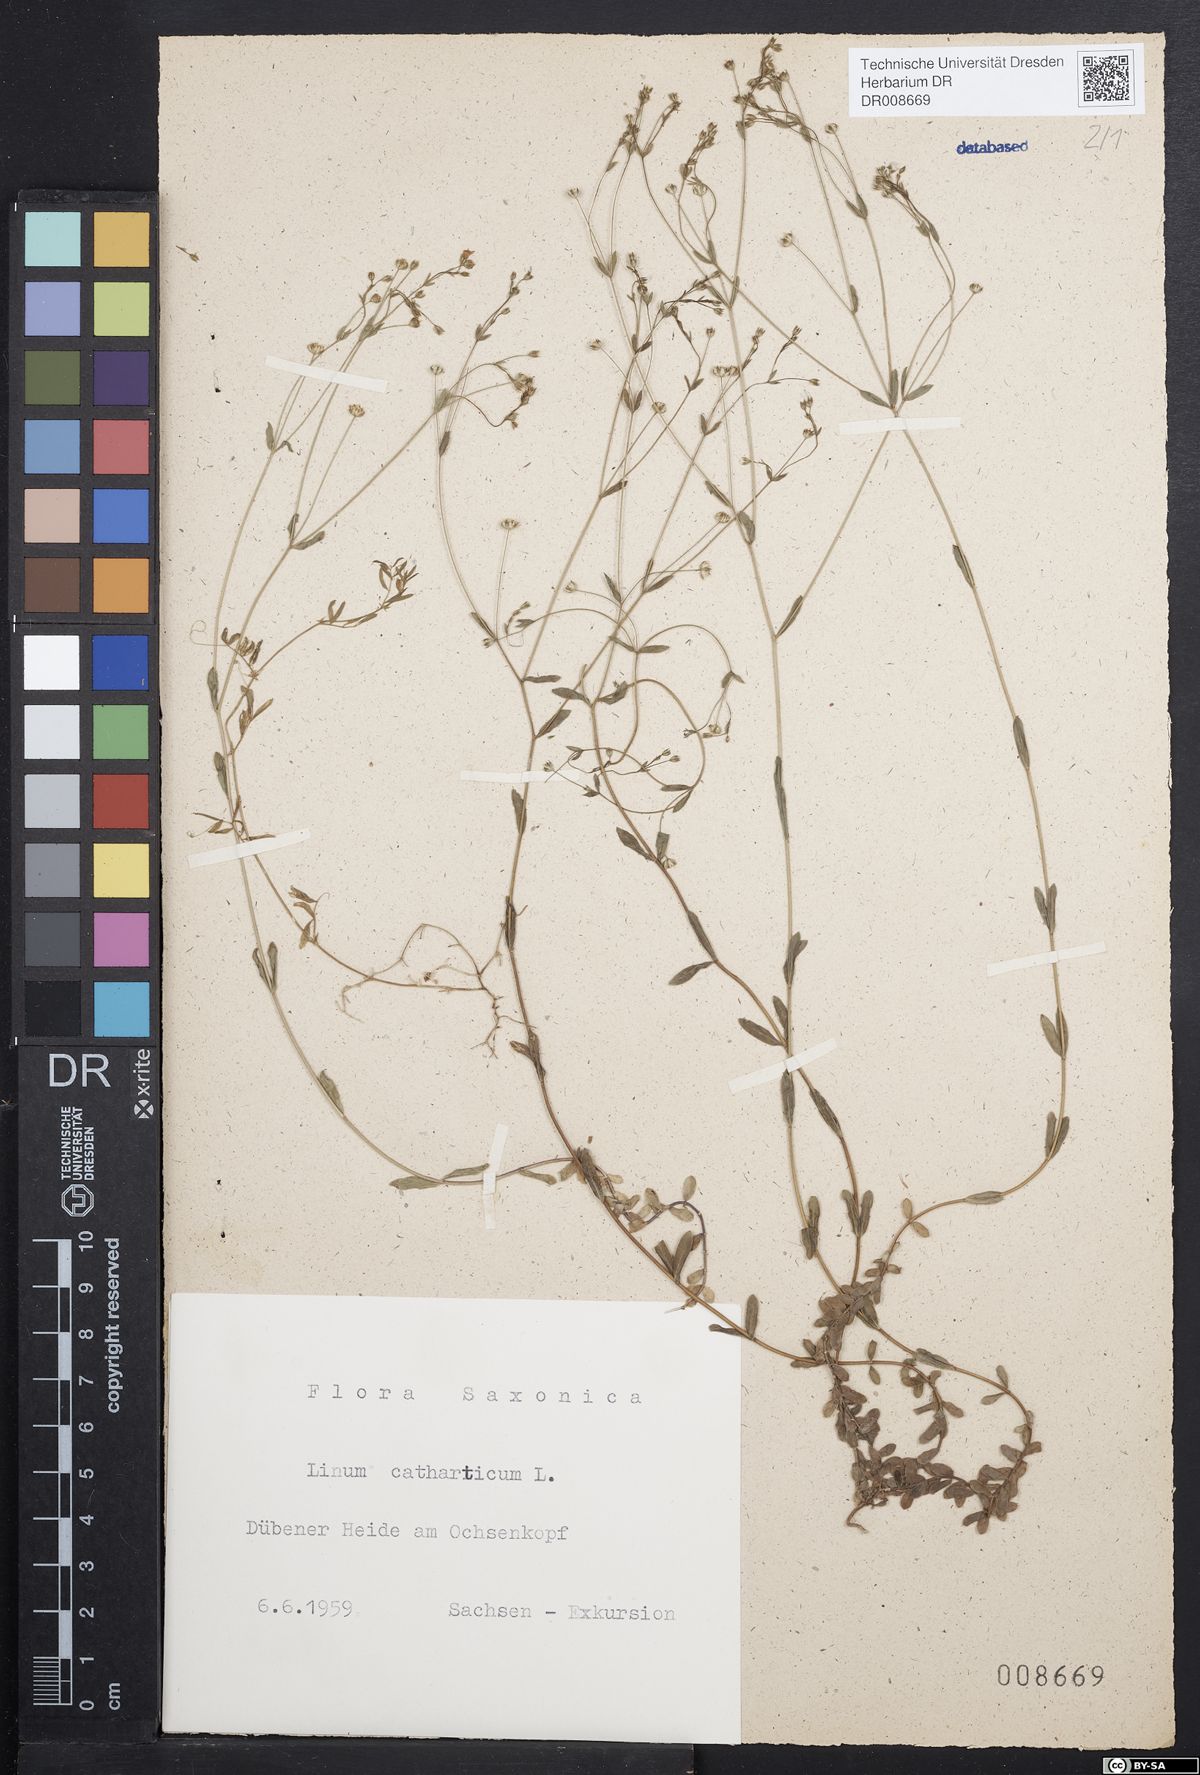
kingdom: Plantae
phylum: Tracheophyta
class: Magnoliopsida
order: Malpighiales
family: Linaceae
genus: Linum
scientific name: Linum catharticum
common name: Fairy flax
